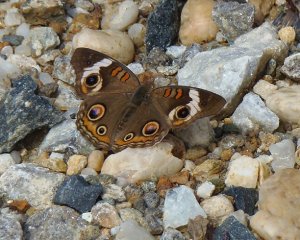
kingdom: Animalia
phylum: Arthropoda
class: Insecta
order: Lepidoptera
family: Nymphalidae
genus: Junonia
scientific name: Junonia coenia
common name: Common Buckeye
